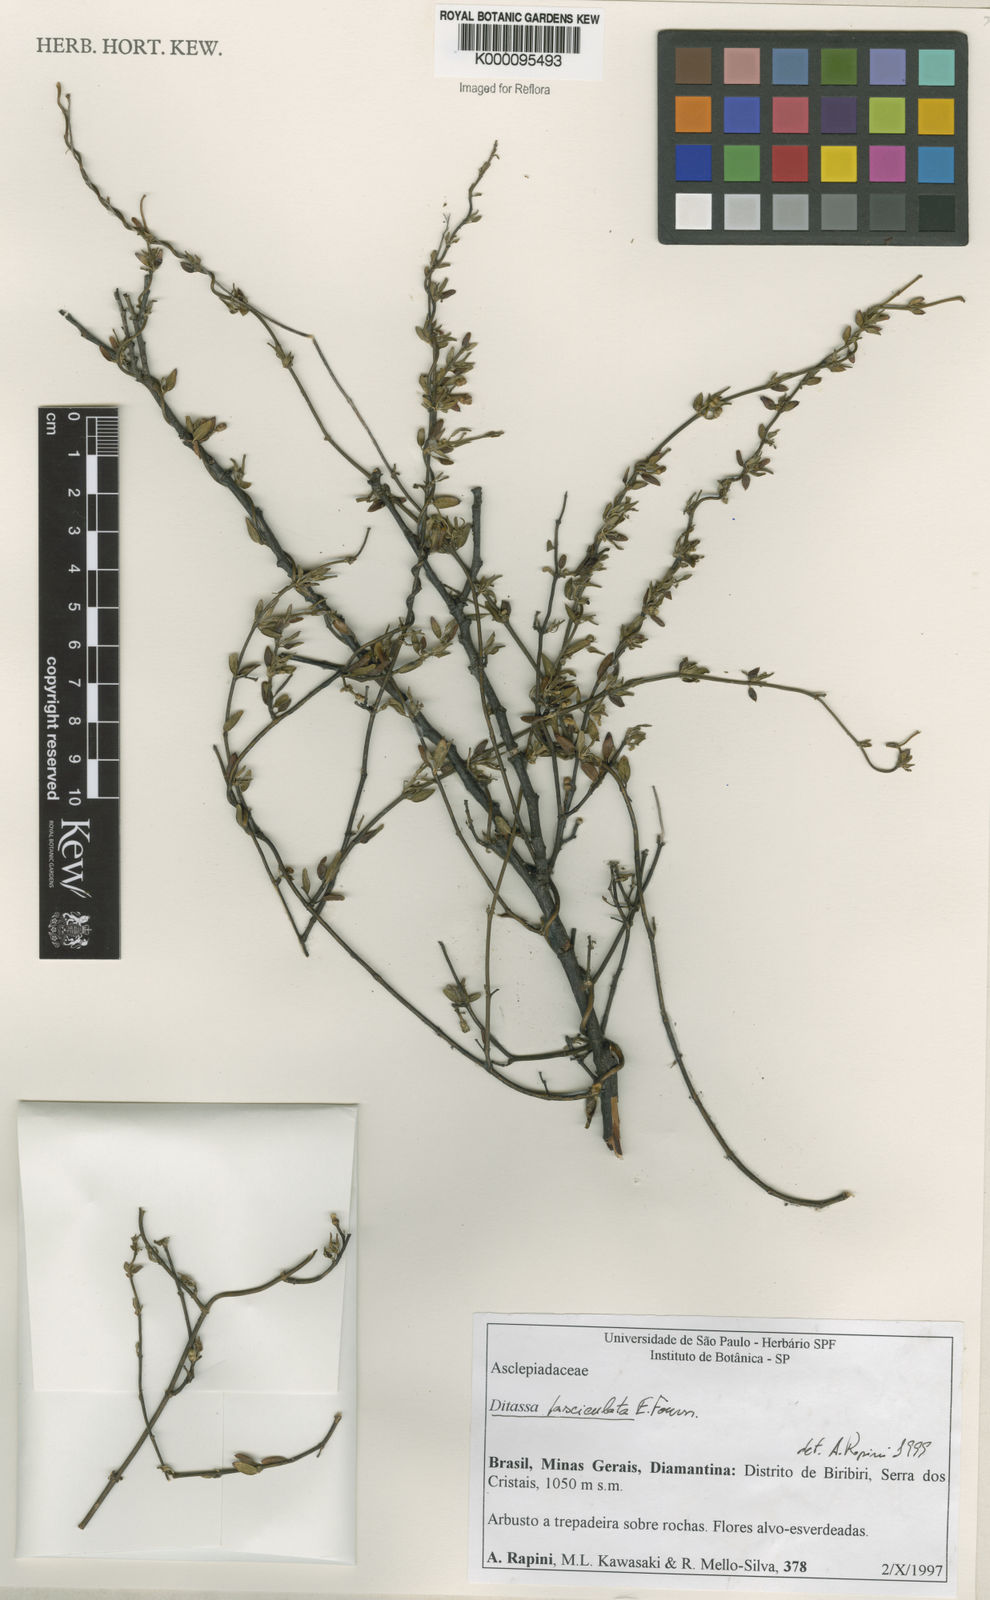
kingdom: Plantae
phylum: Tracheophyta
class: Magnoliopsida
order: Gentianales
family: Apocynaceae
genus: Ditassa
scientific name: Ditassa fasciculata
